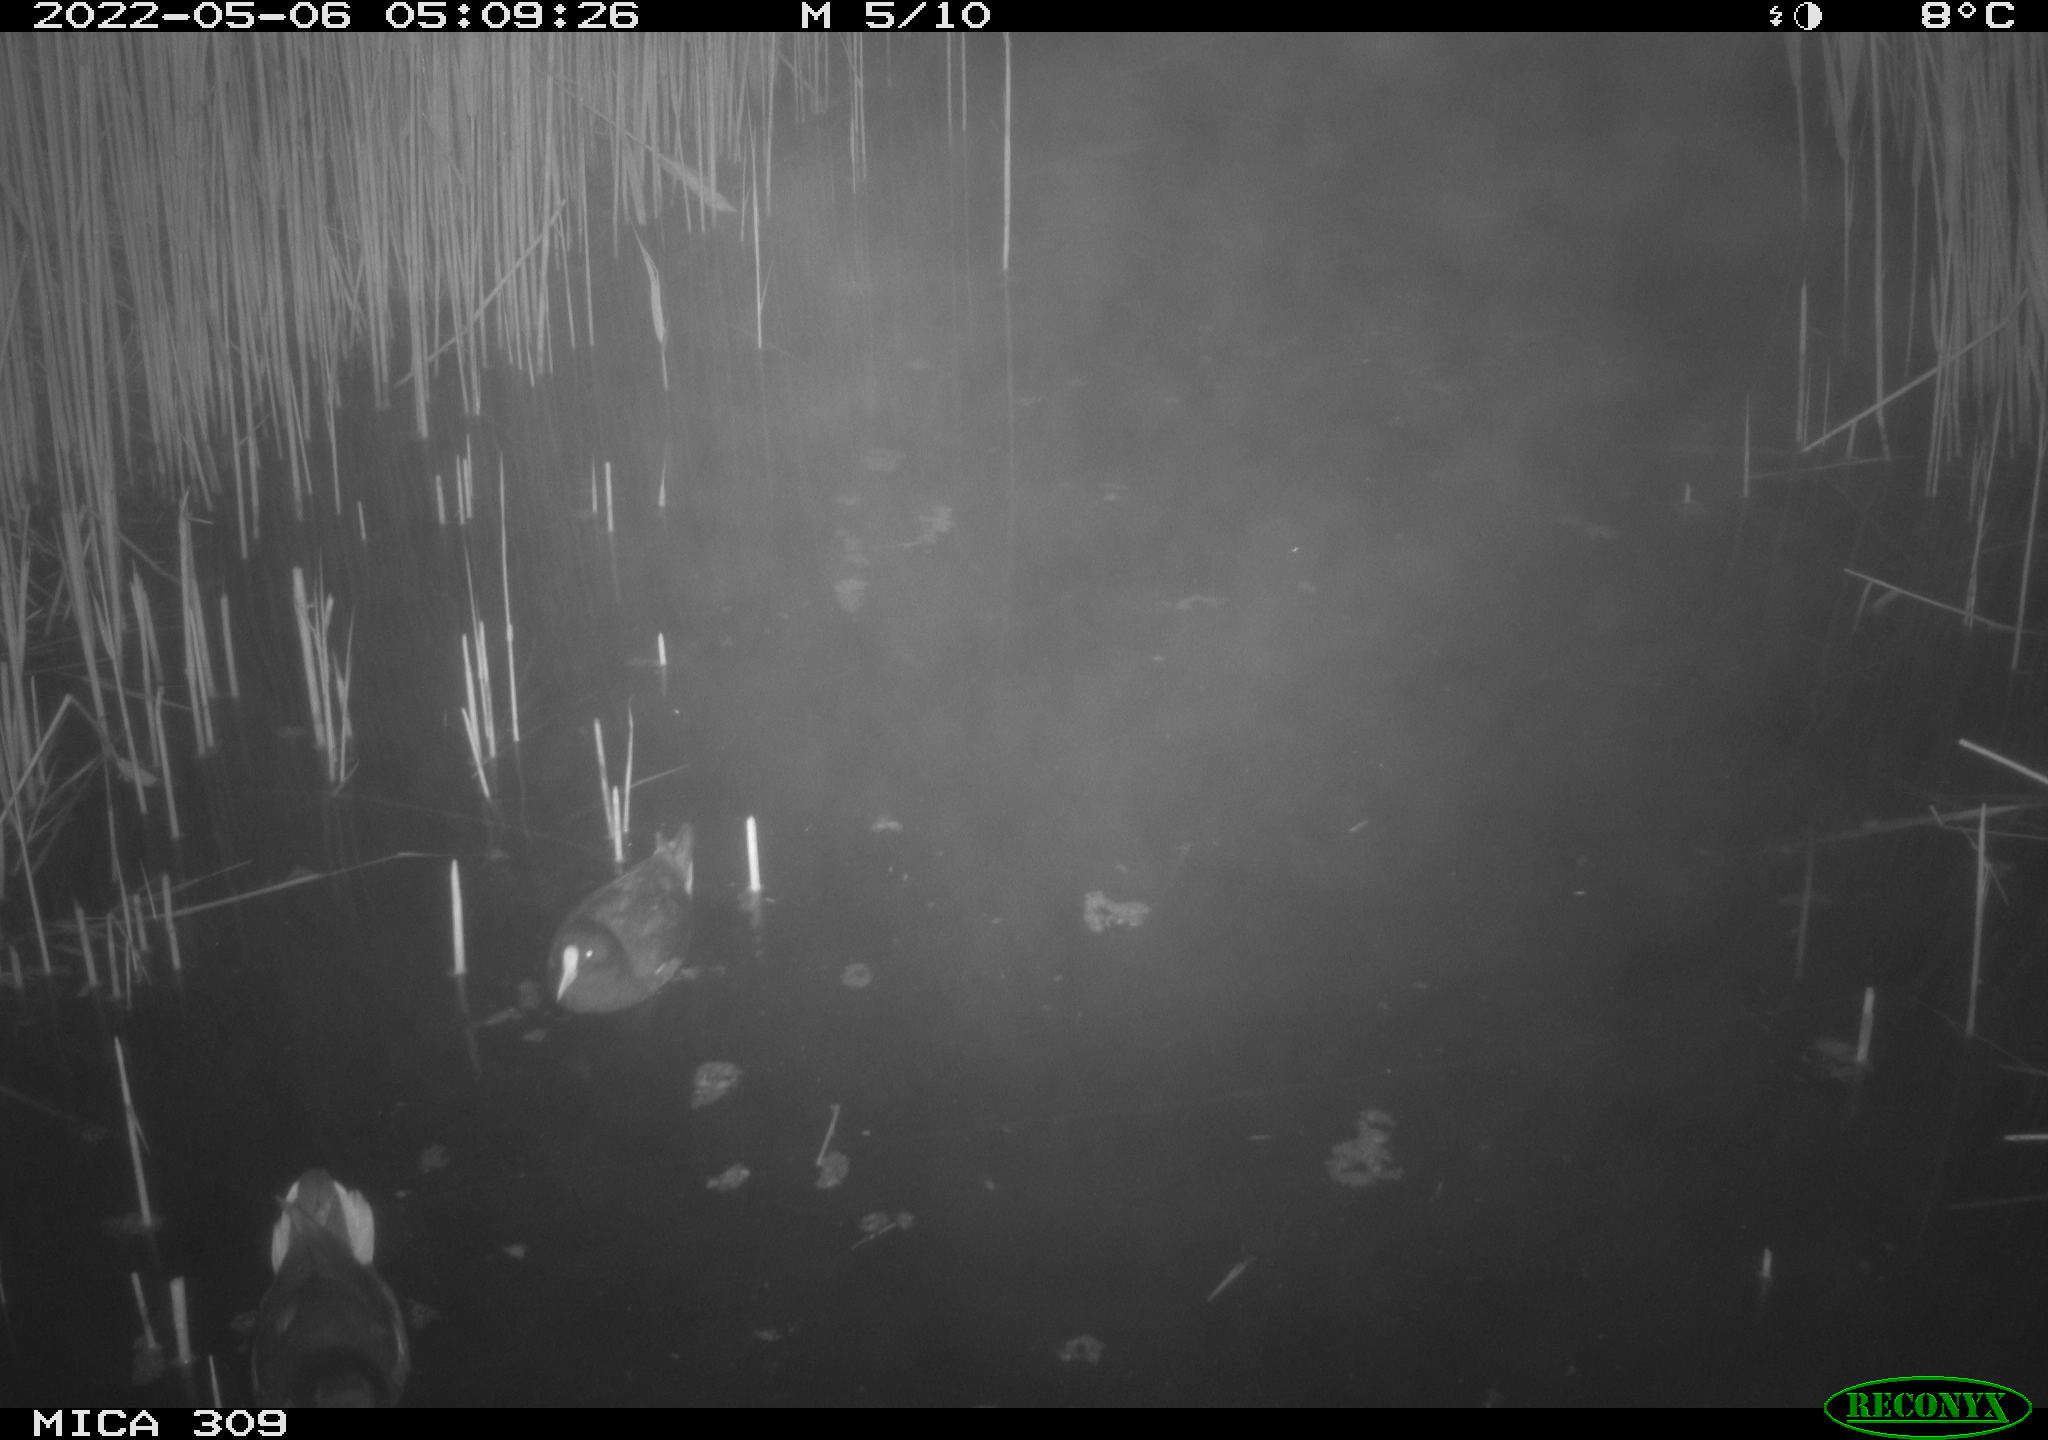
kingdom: Animalia
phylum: Chordata
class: Aves
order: Gruiformes
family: Rallidae
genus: Fulica
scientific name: Fulica atra
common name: Eurasian coot
